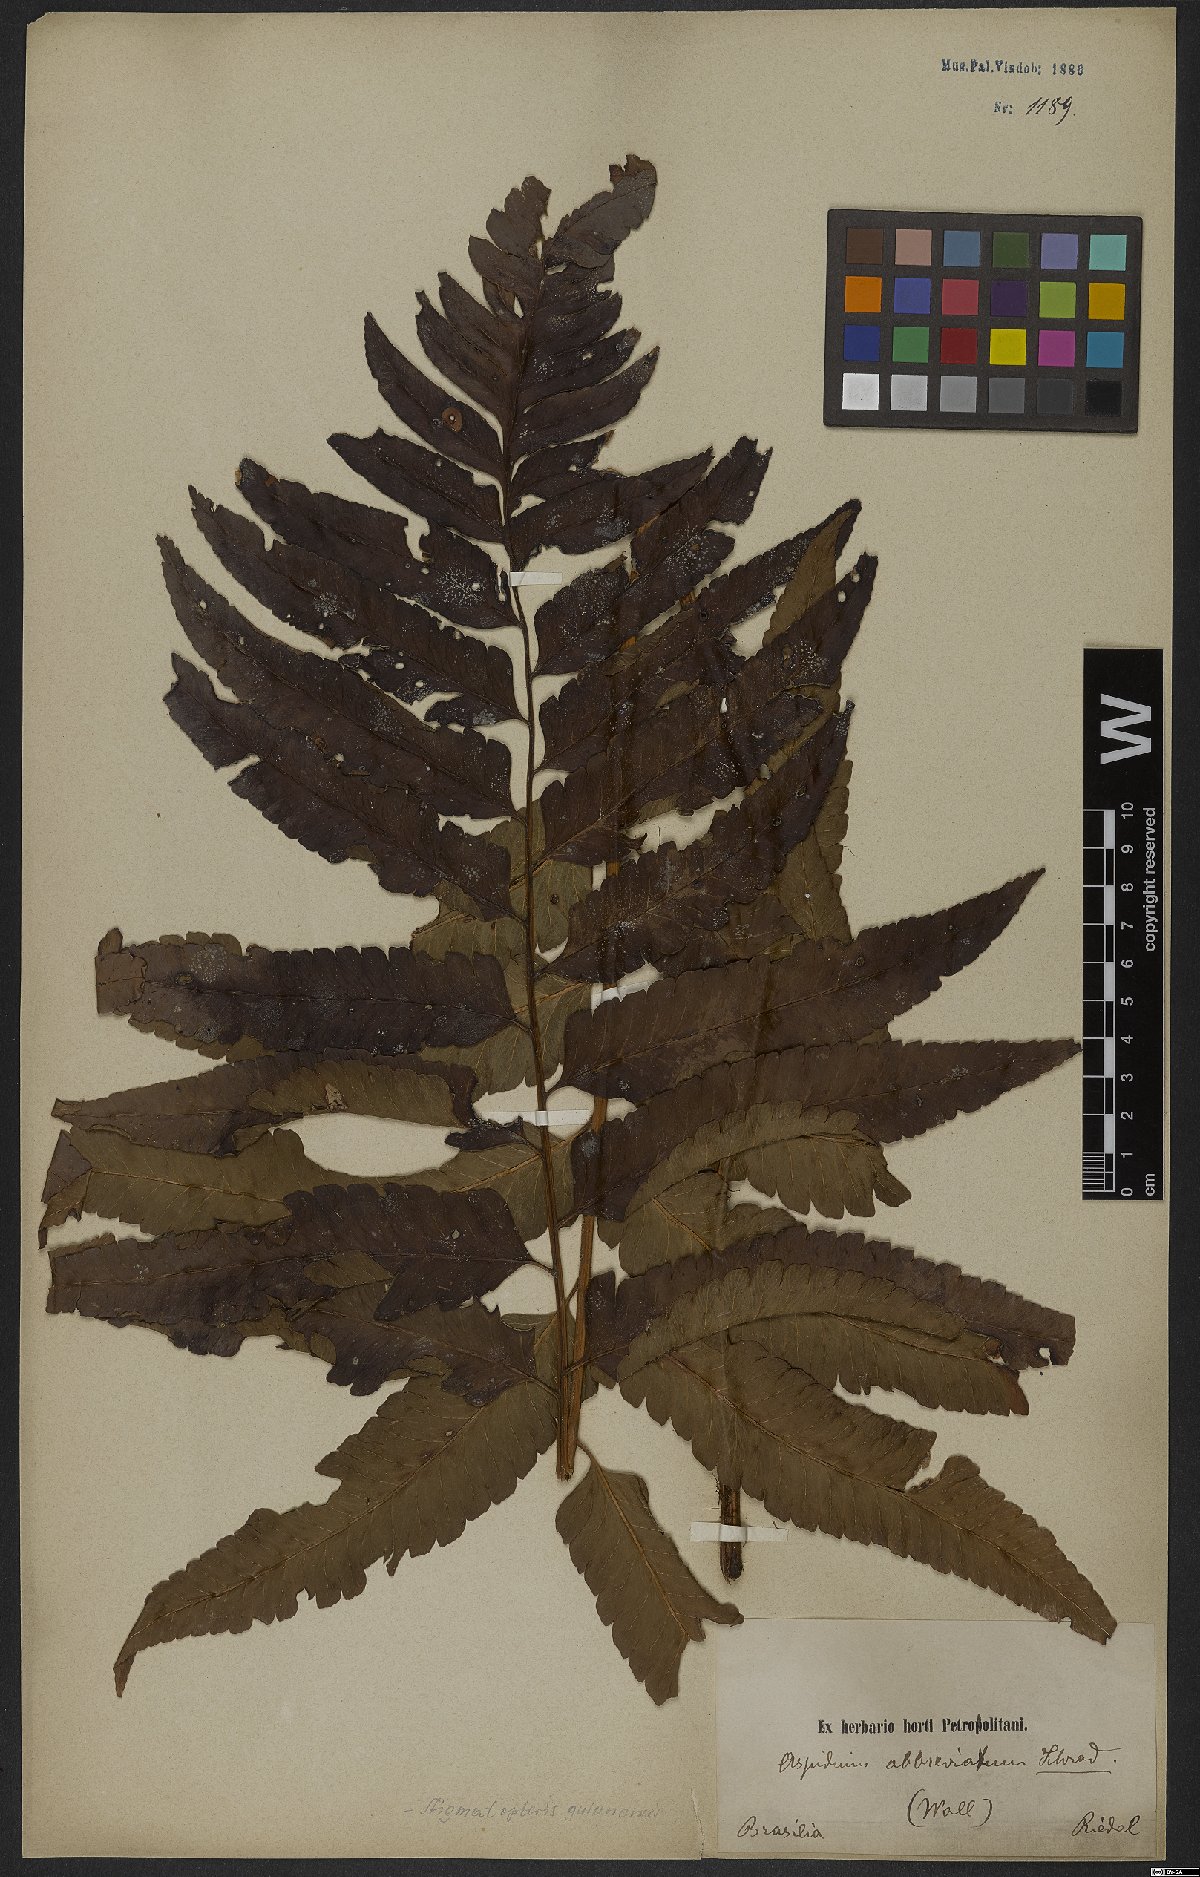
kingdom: Plantae
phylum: Tracheophyta
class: Polypodiopsida
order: Polypodiales
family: Dryopteridaceae
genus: Cyclodium
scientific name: Cyclodium guianense
